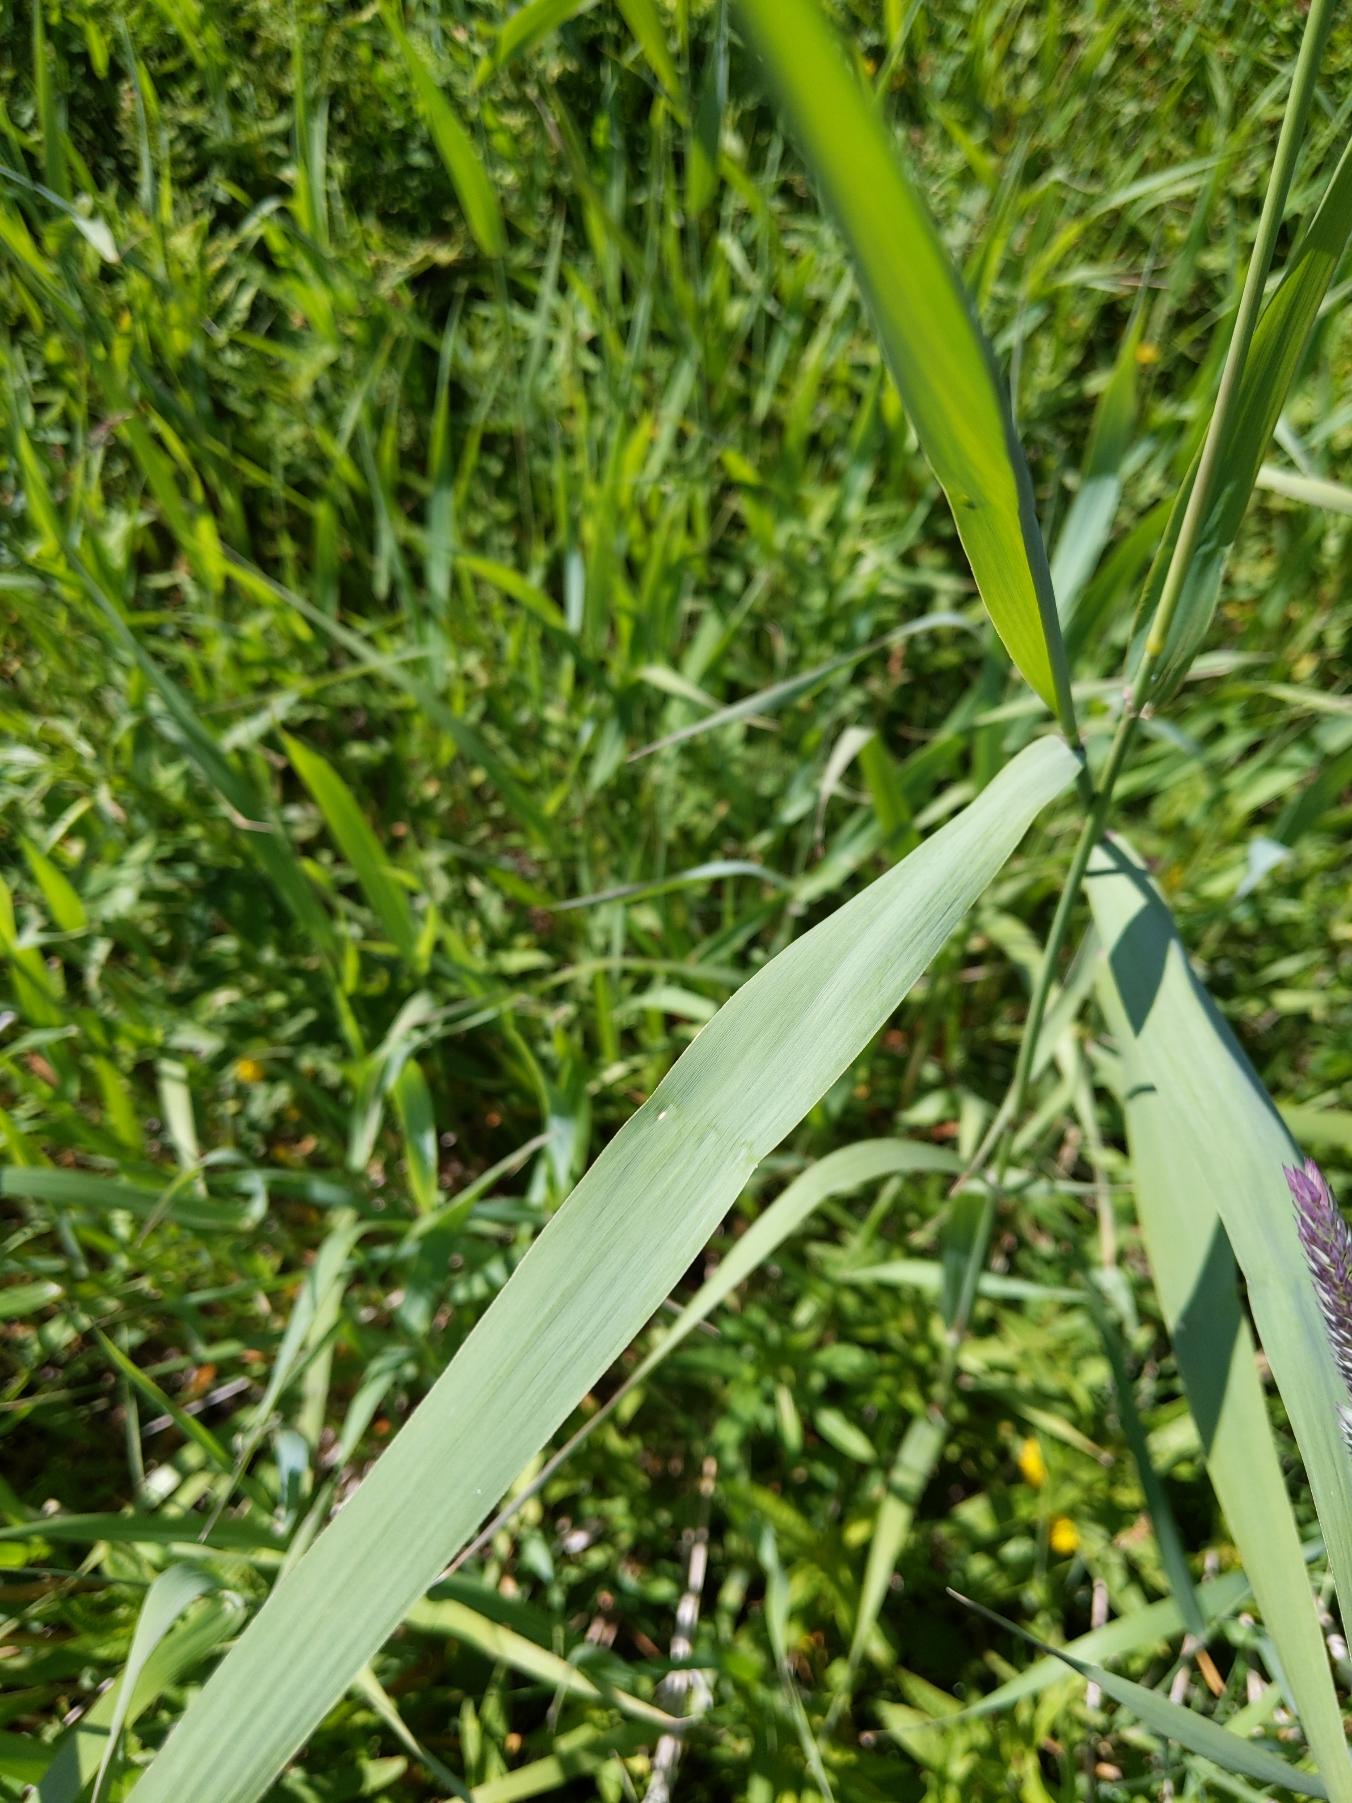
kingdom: Plantae
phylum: Tracheophyta
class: Liliopsida
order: Poales
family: Poaceae
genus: Phragmites
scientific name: Phragmites australis
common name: Tagrør
